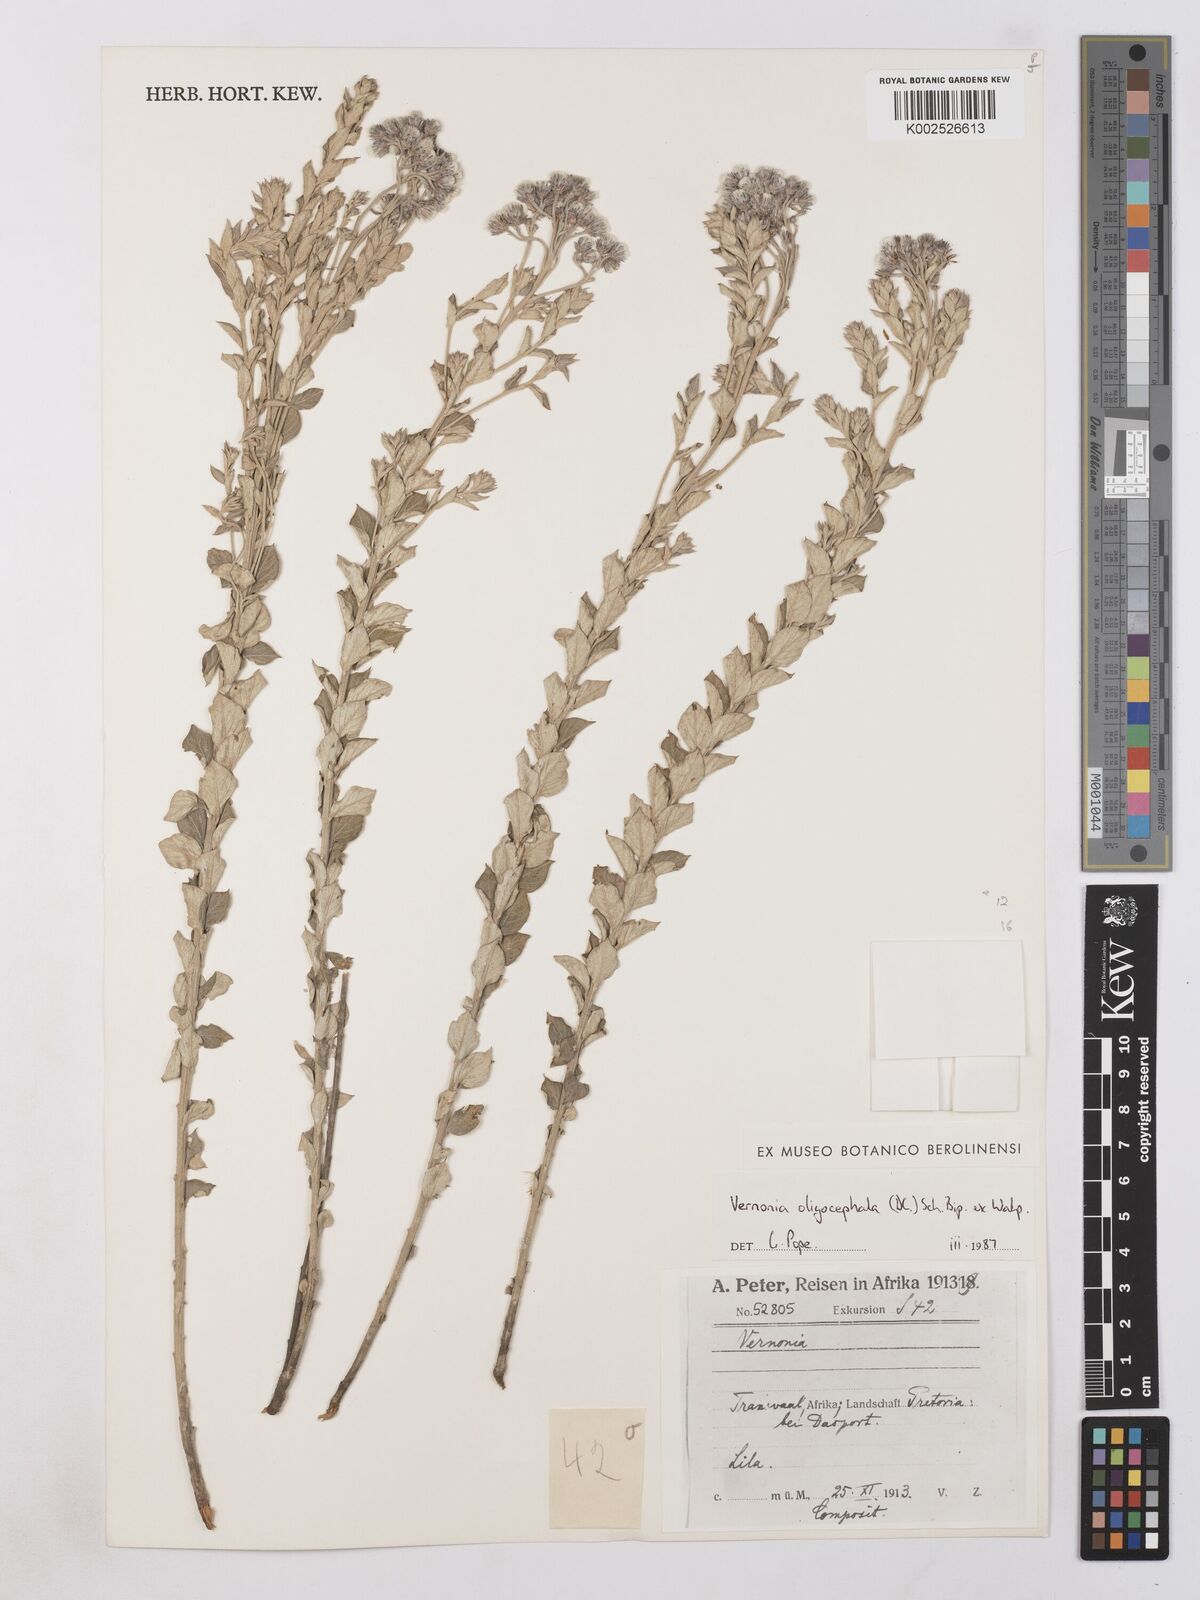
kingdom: Plantae
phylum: Tracheophyta
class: Magnoliopsida
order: Asterales
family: Asteraceae
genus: Hilliardiella
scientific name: Hilliardiella oligocephala
